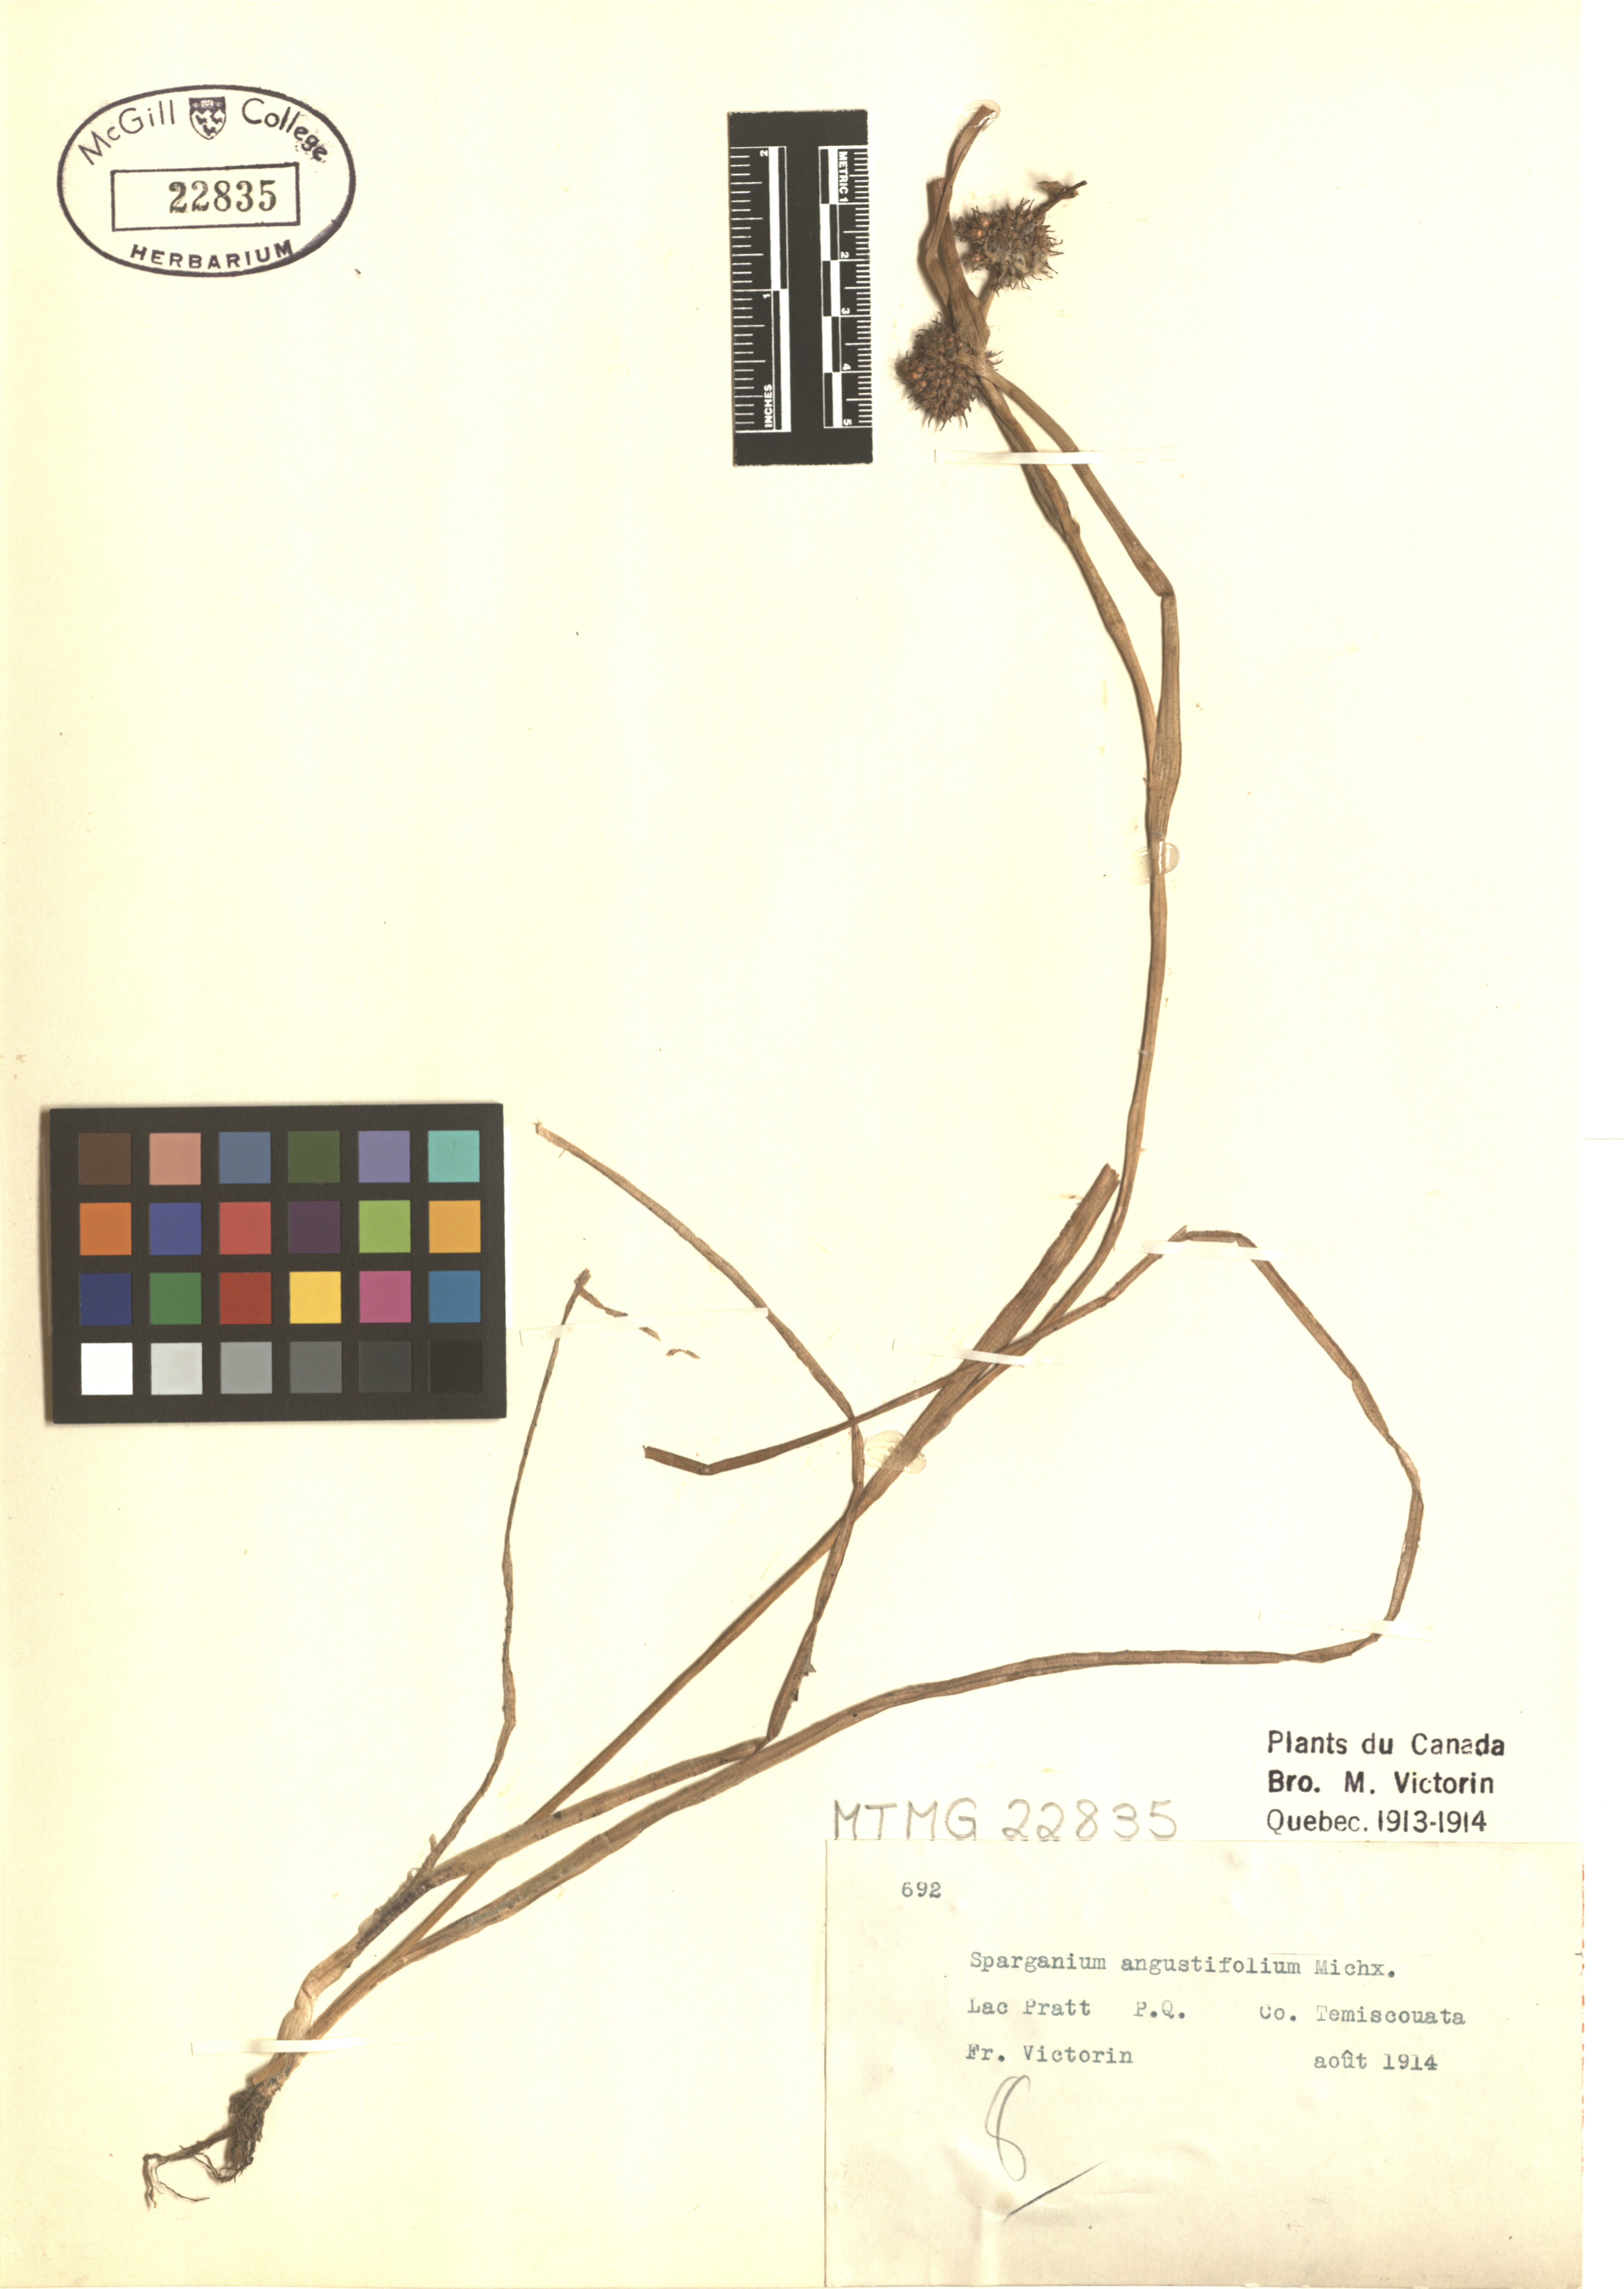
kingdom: Plantae
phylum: Tracheophyta
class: Liliopsida
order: Poales
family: Typhaceae
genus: Sparganium
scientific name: Sparganium angustifolium
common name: Floating bur-reed
